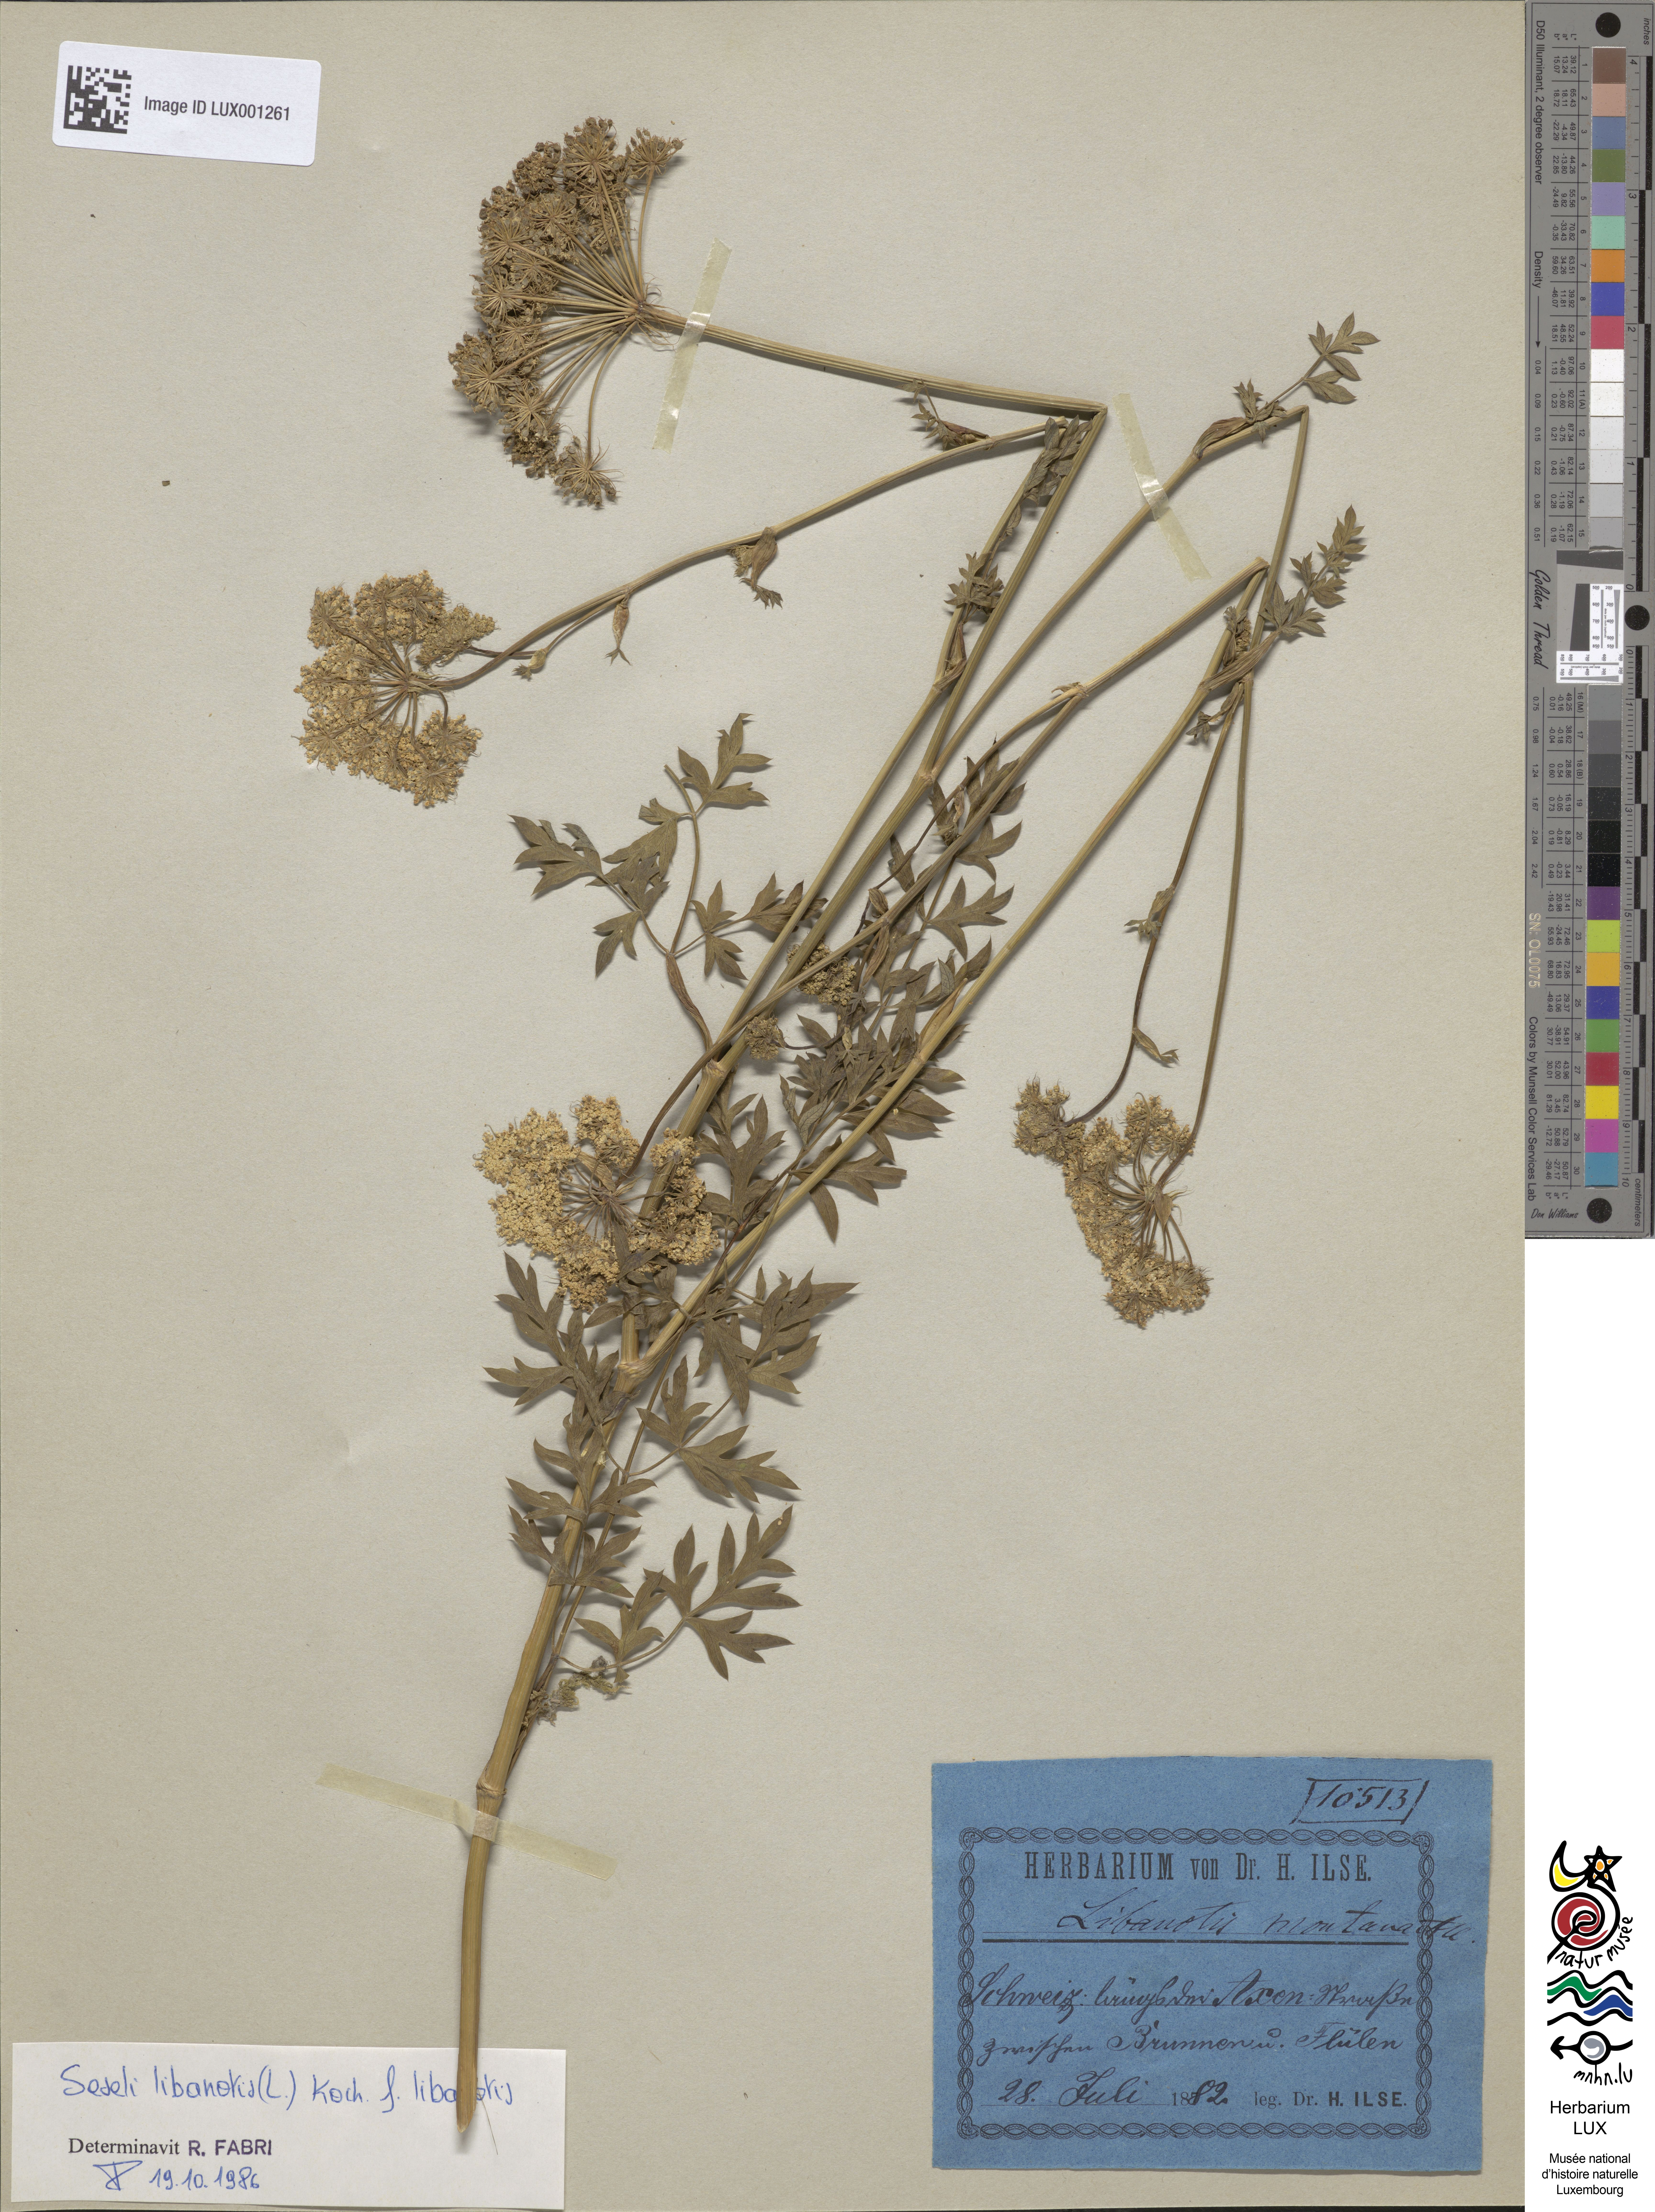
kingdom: Plantae
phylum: Tracheophyta
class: Magnoliopsida
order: Apiales
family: Apiaceae
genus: Seseli
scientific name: Seseli libanotis
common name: Mooncarrot
